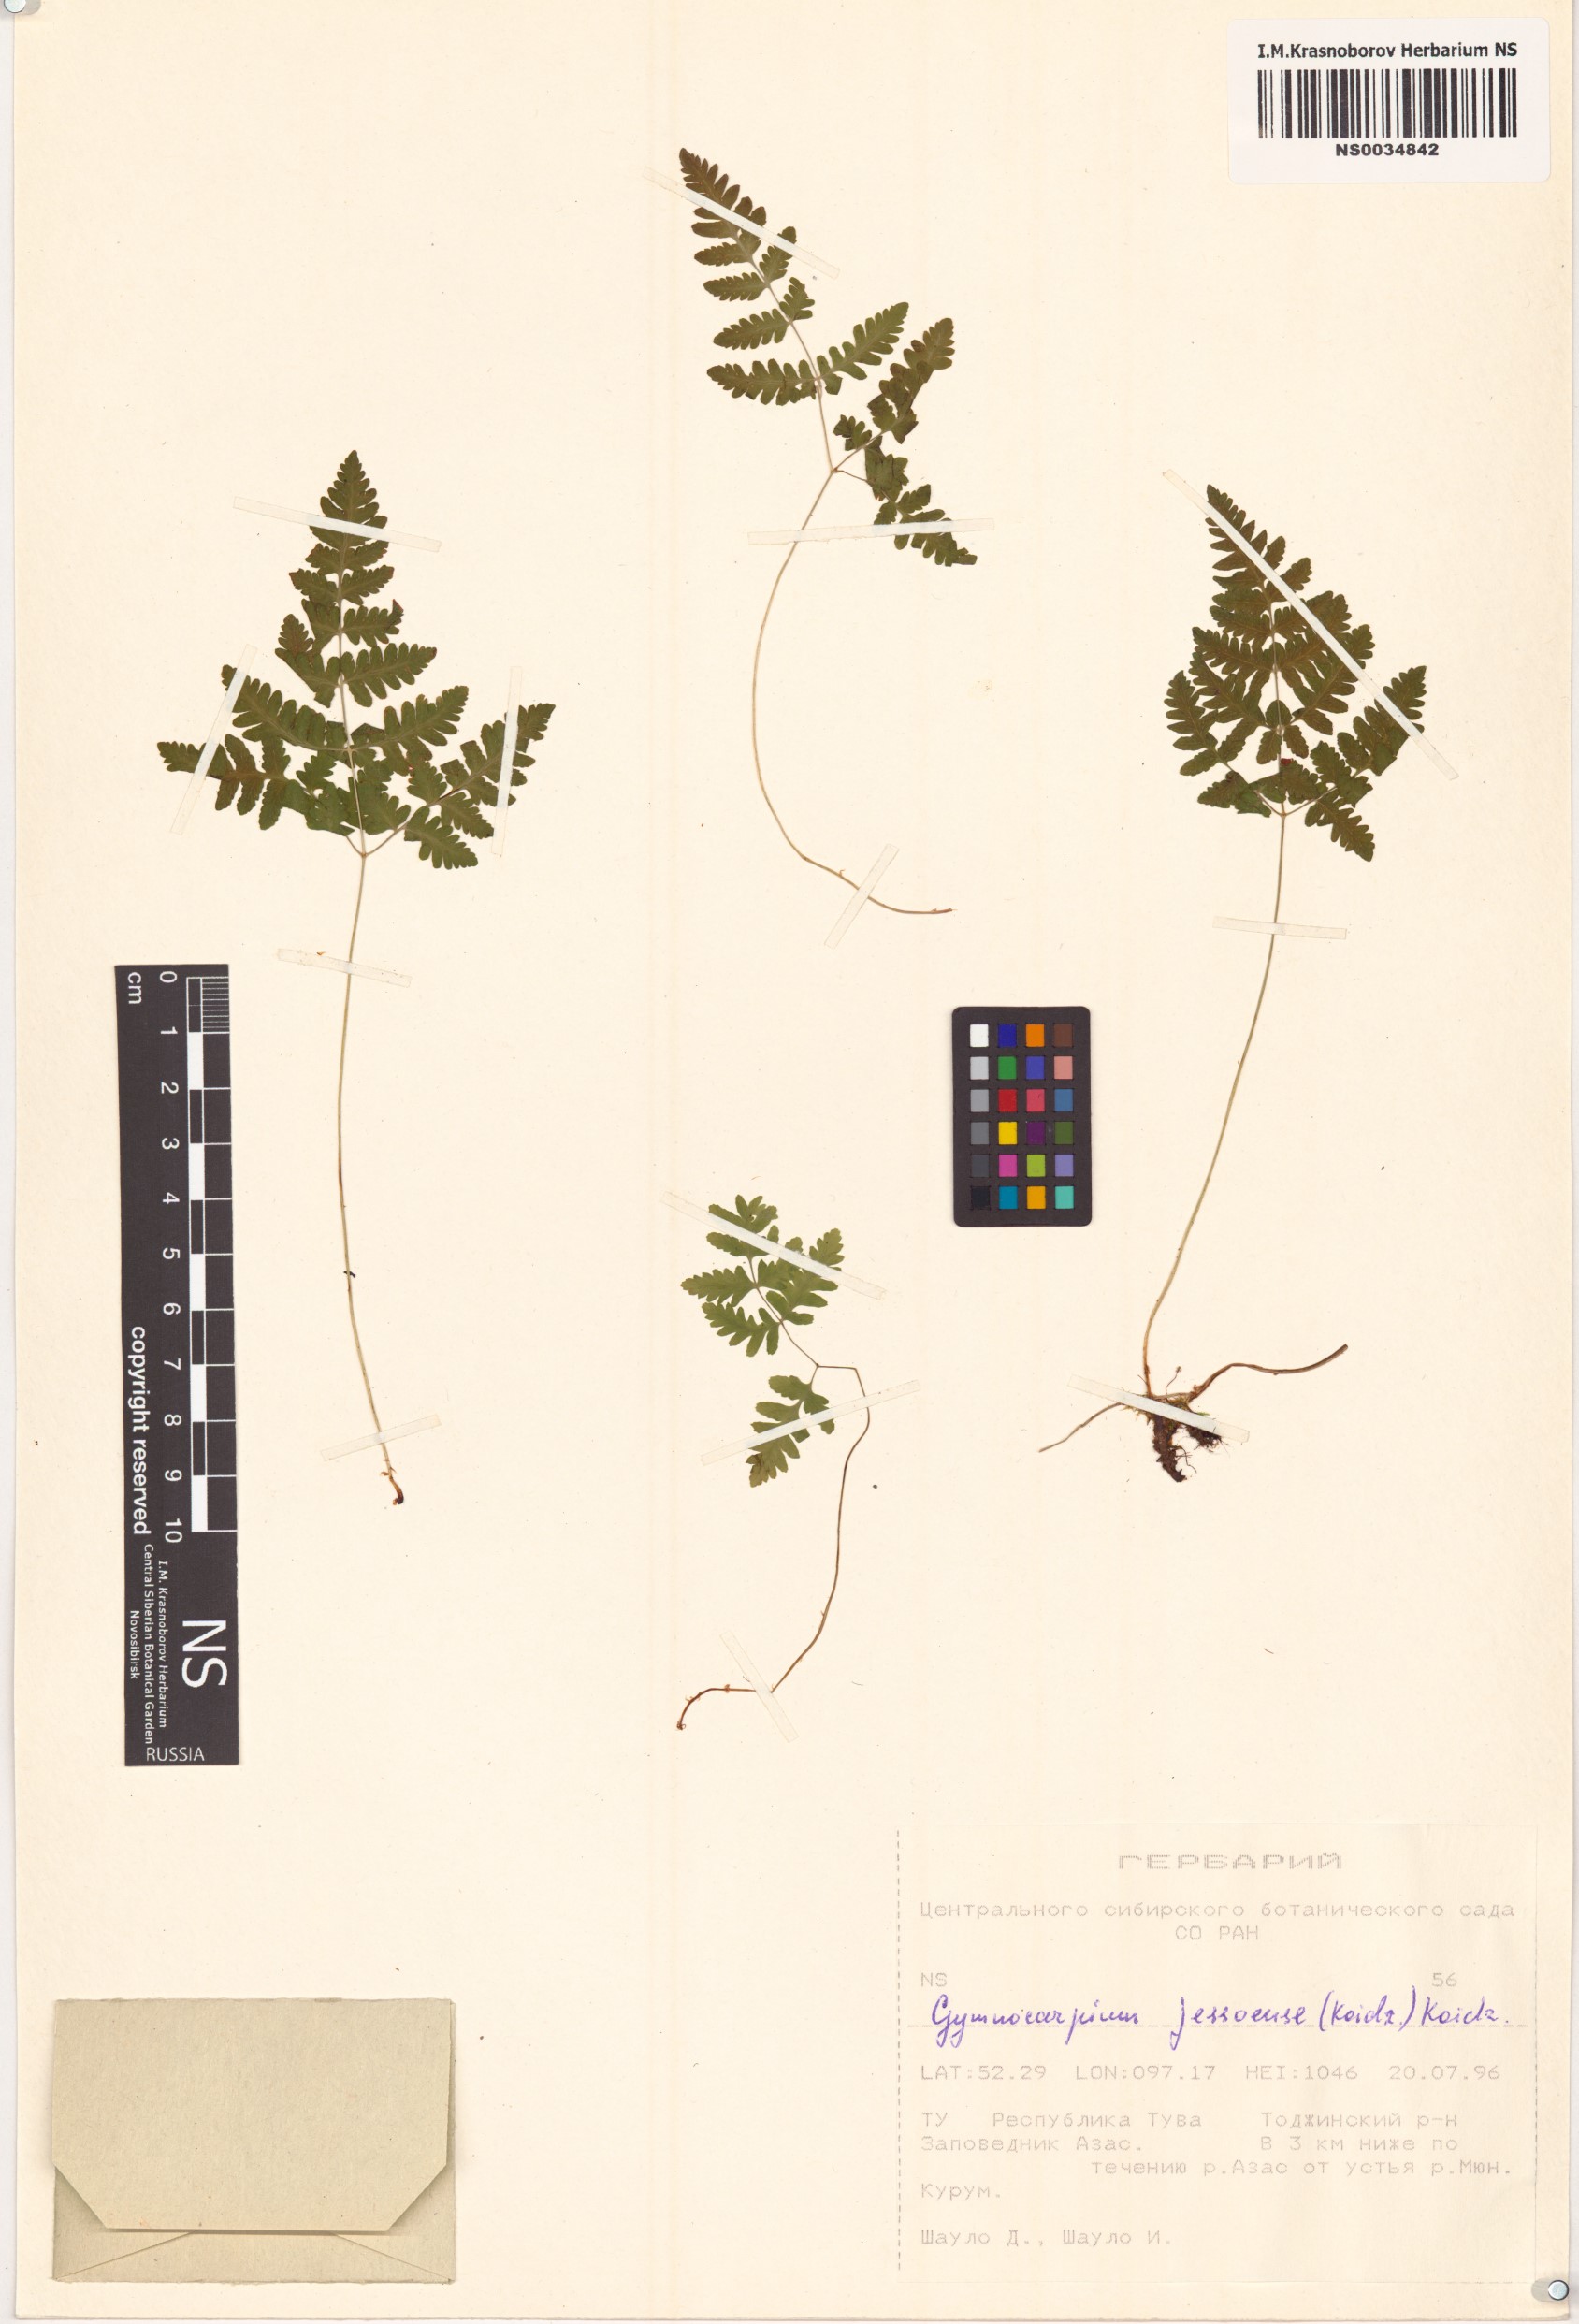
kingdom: Plantae
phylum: Tracheophyta
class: Polypodiopsida
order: Polypodiales
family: Cystopteridaceae
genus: Gymnocarpium
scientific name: Gymnocarpium jessoense
